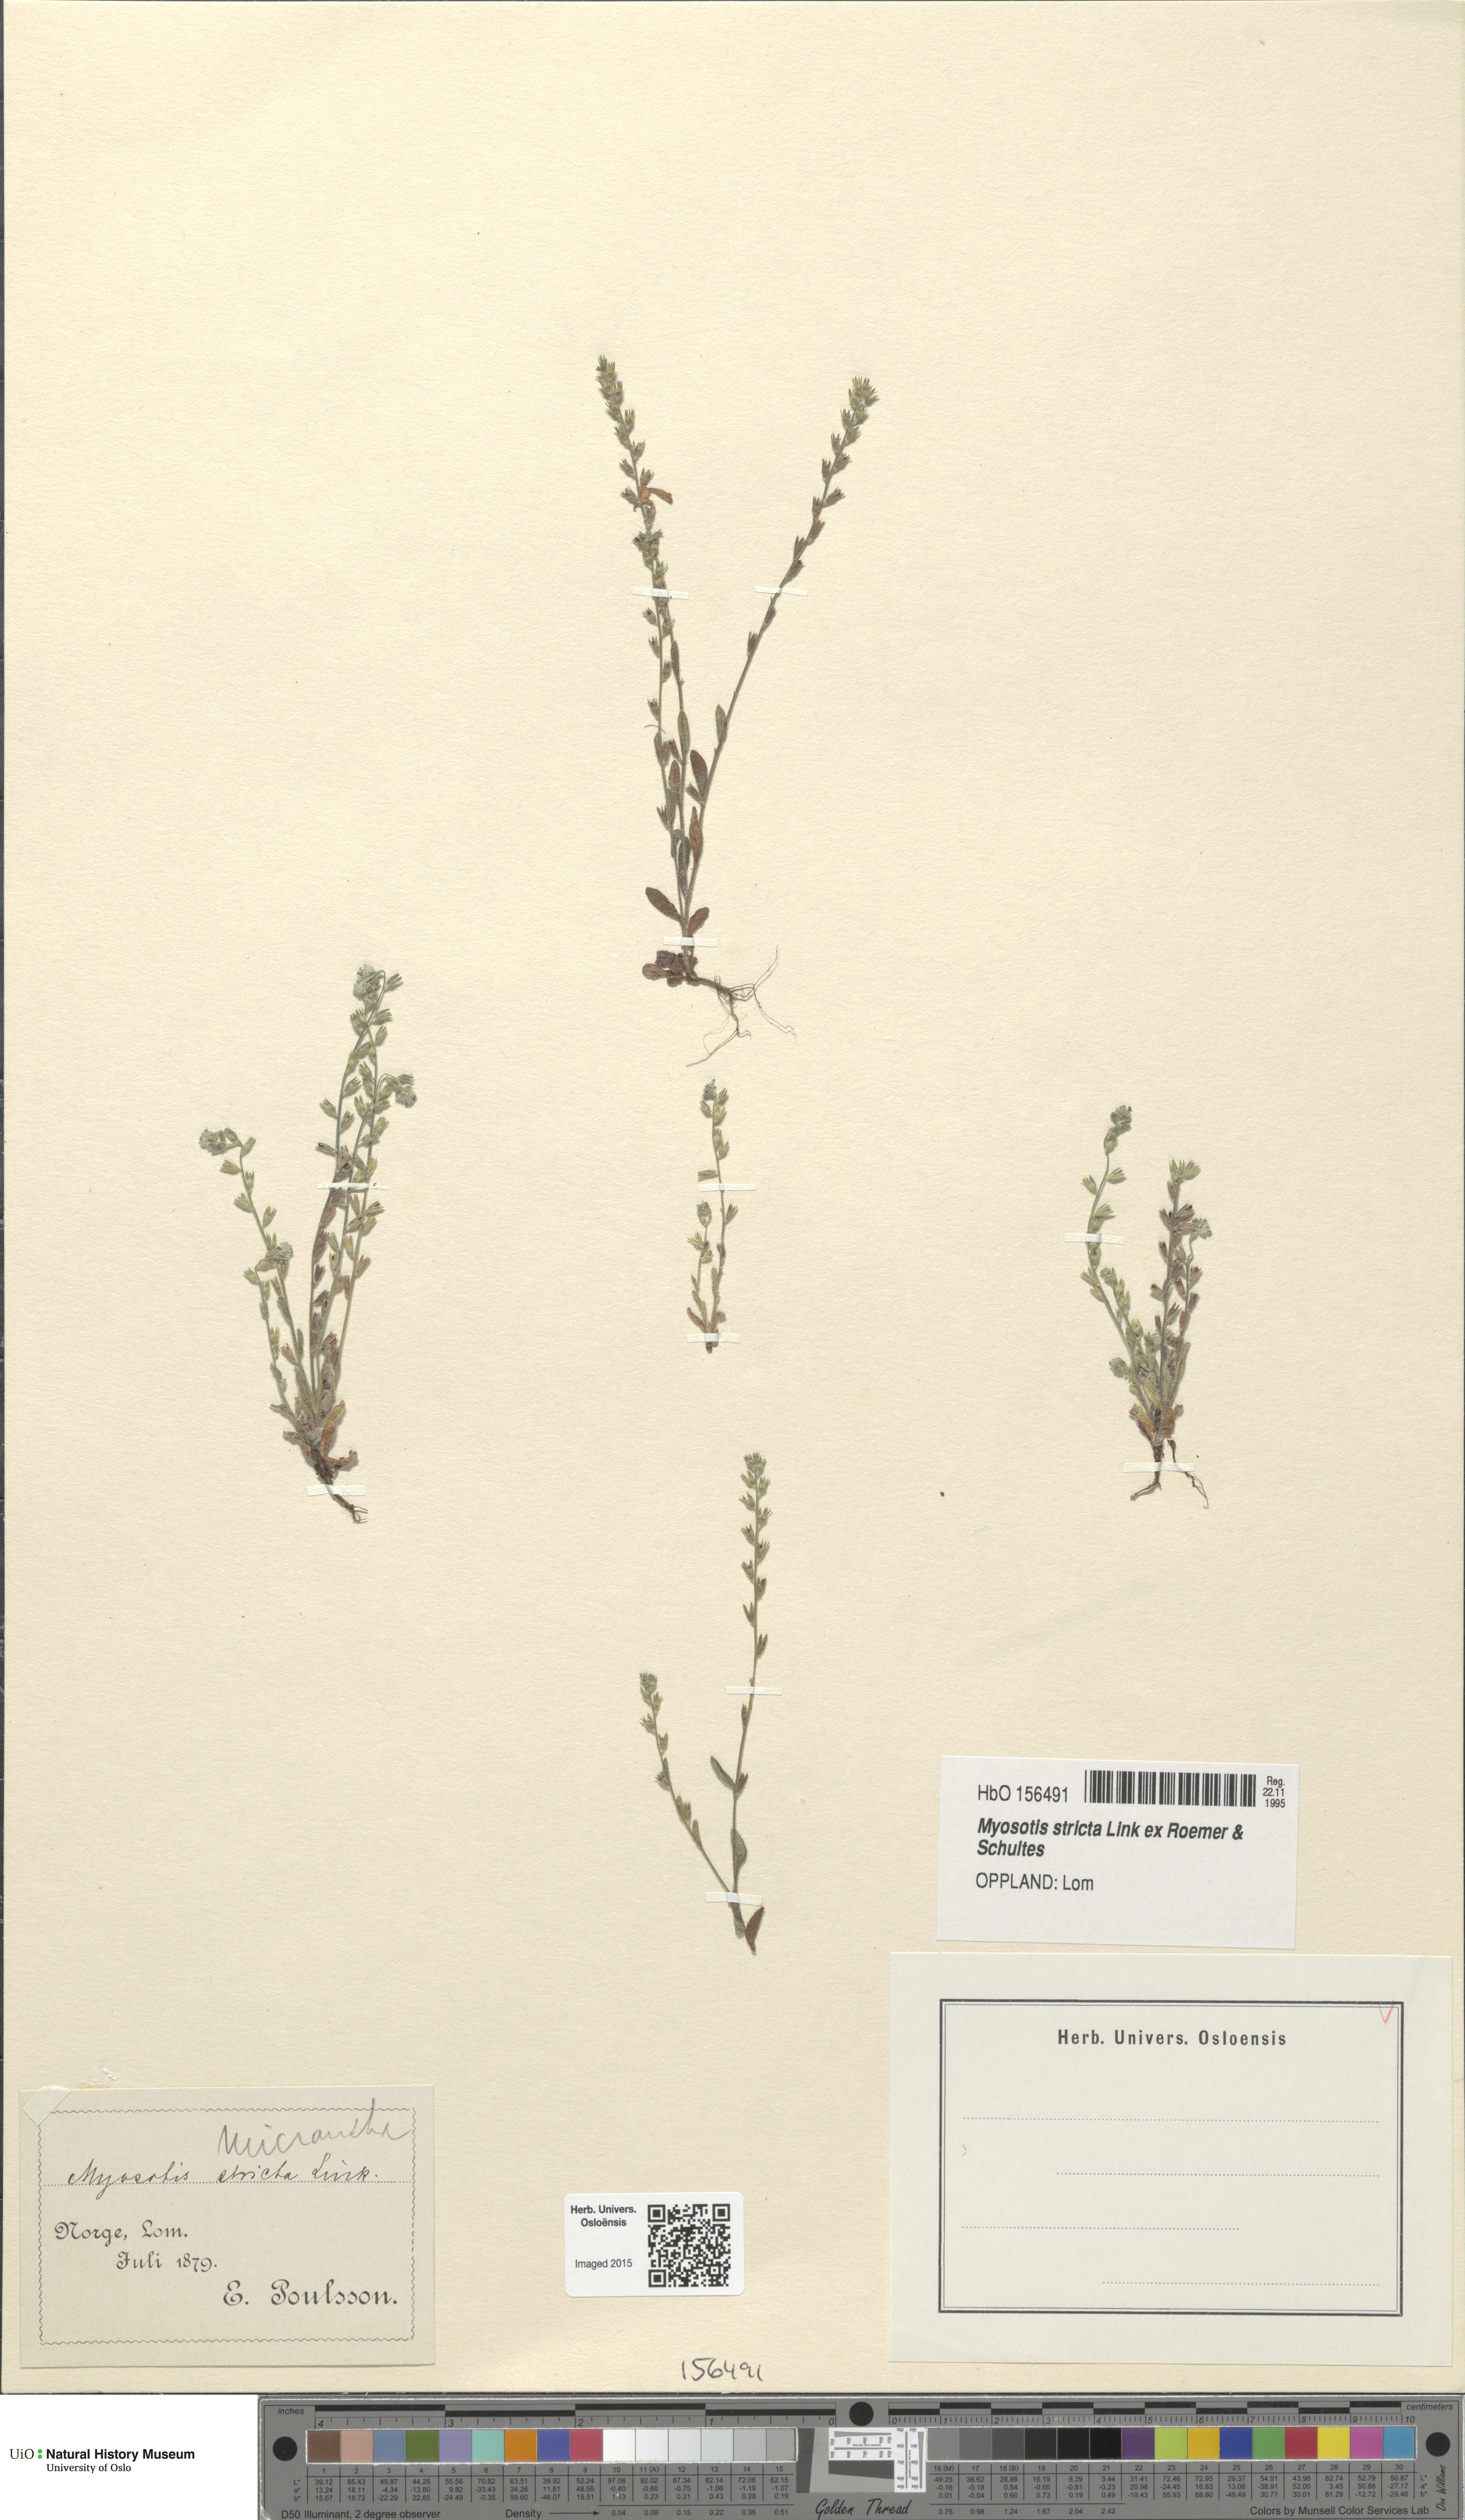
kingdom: Plantae
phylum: Tracheophyta
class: Magnoliopsida
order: Boraginales
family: Boraginaceae
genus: Myosotis
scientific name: Myosotis stricta
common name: Strict forget-me-not
